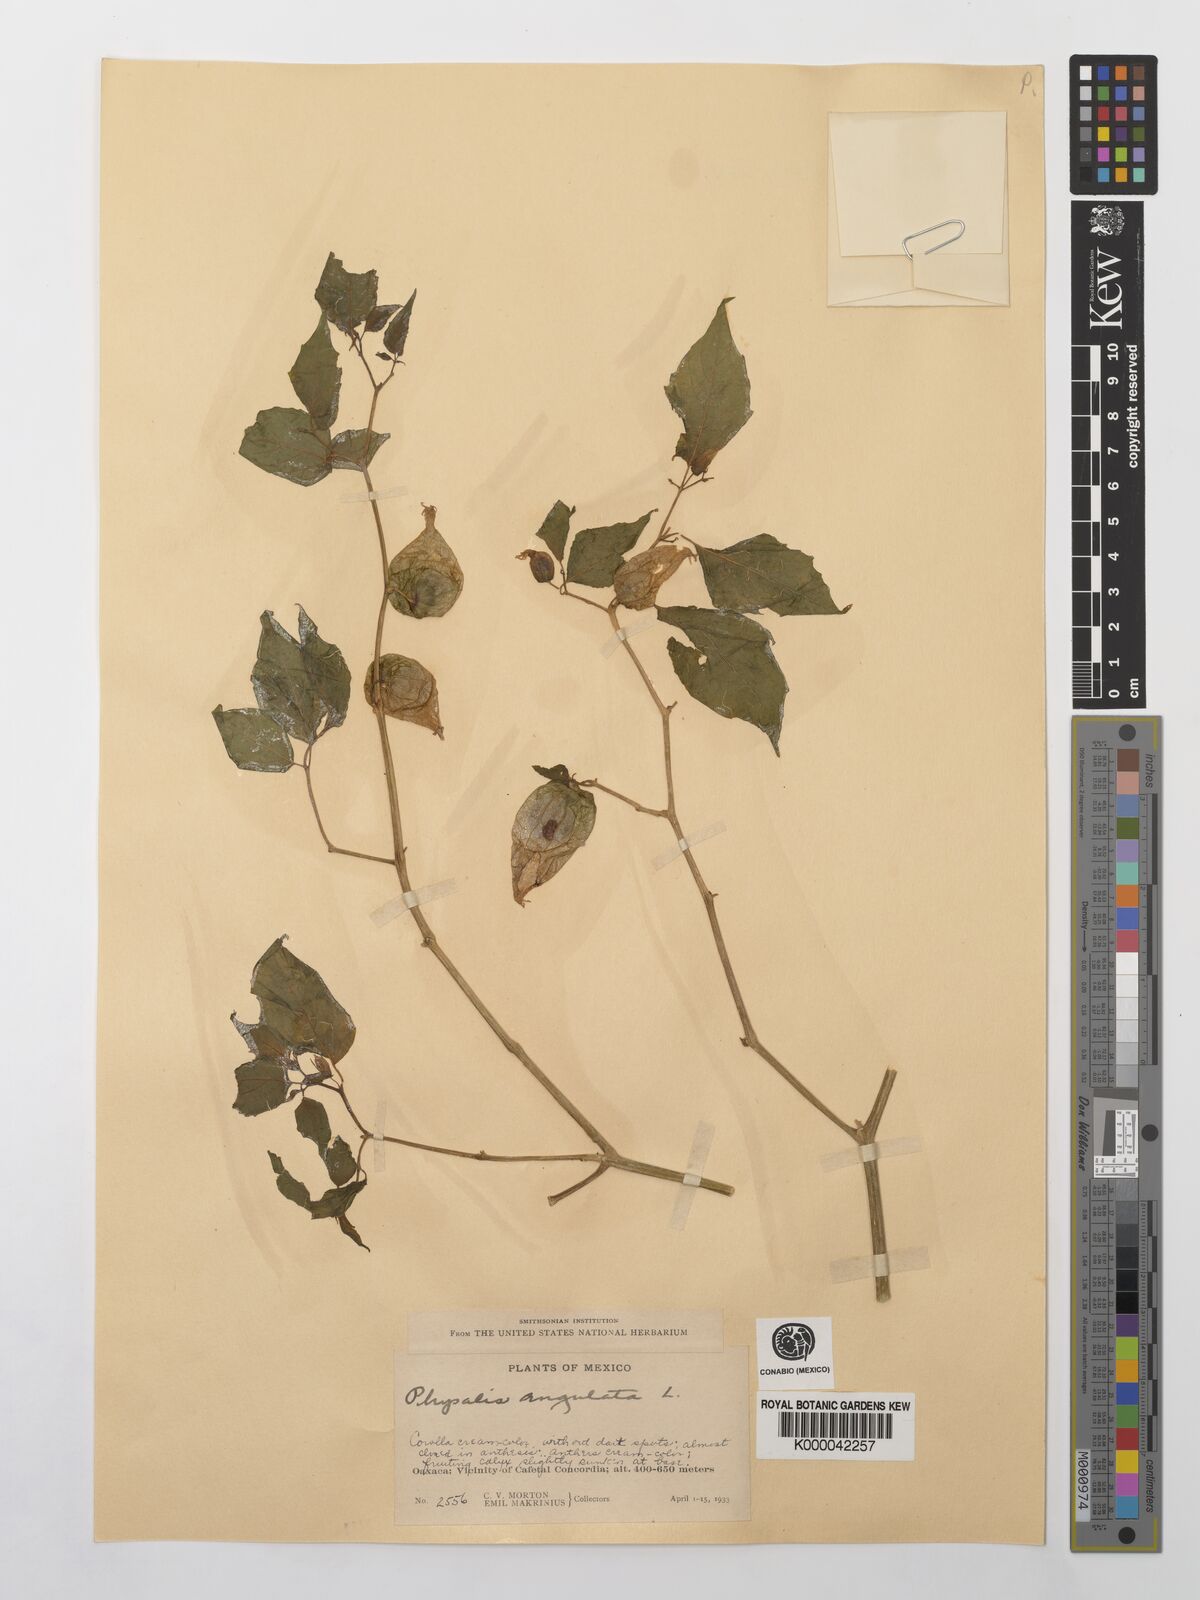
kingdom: Plantae
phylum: Tracheophyta
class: Magnoliopsida
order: Solanales
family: Solanaceae
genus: Physalis
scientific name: Physalis angulata
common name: Angular winter-cherry
